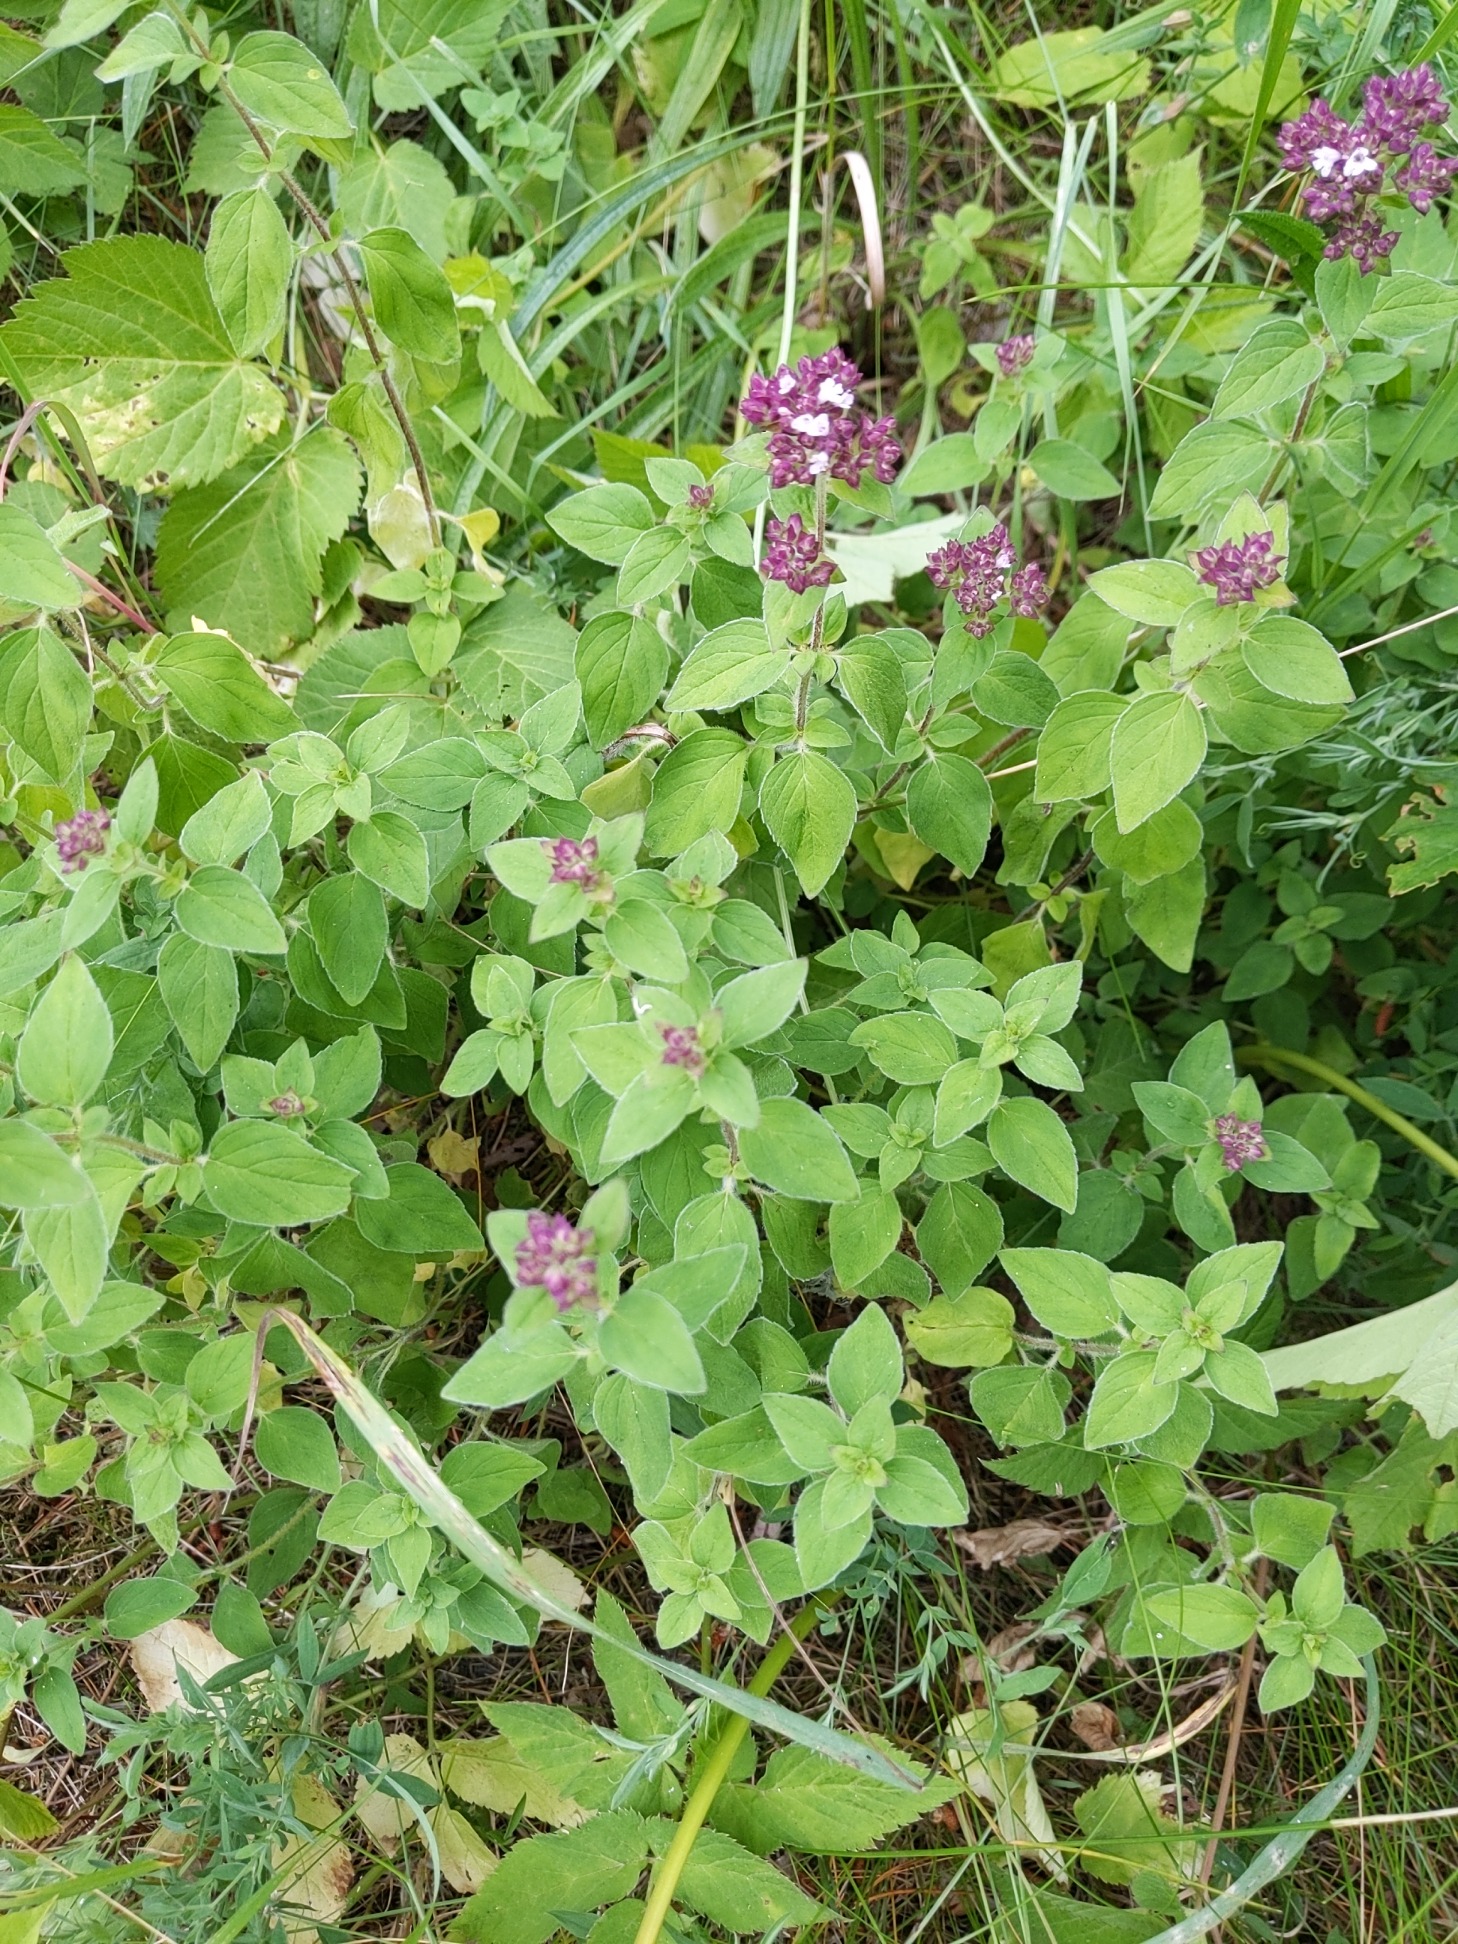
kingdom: Plantae
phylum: Tracheophyta
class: Magnoliopsida
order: Lamiales
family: Lamiaceae
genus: Origanum
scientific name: Origanum vulgare
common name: Merian
